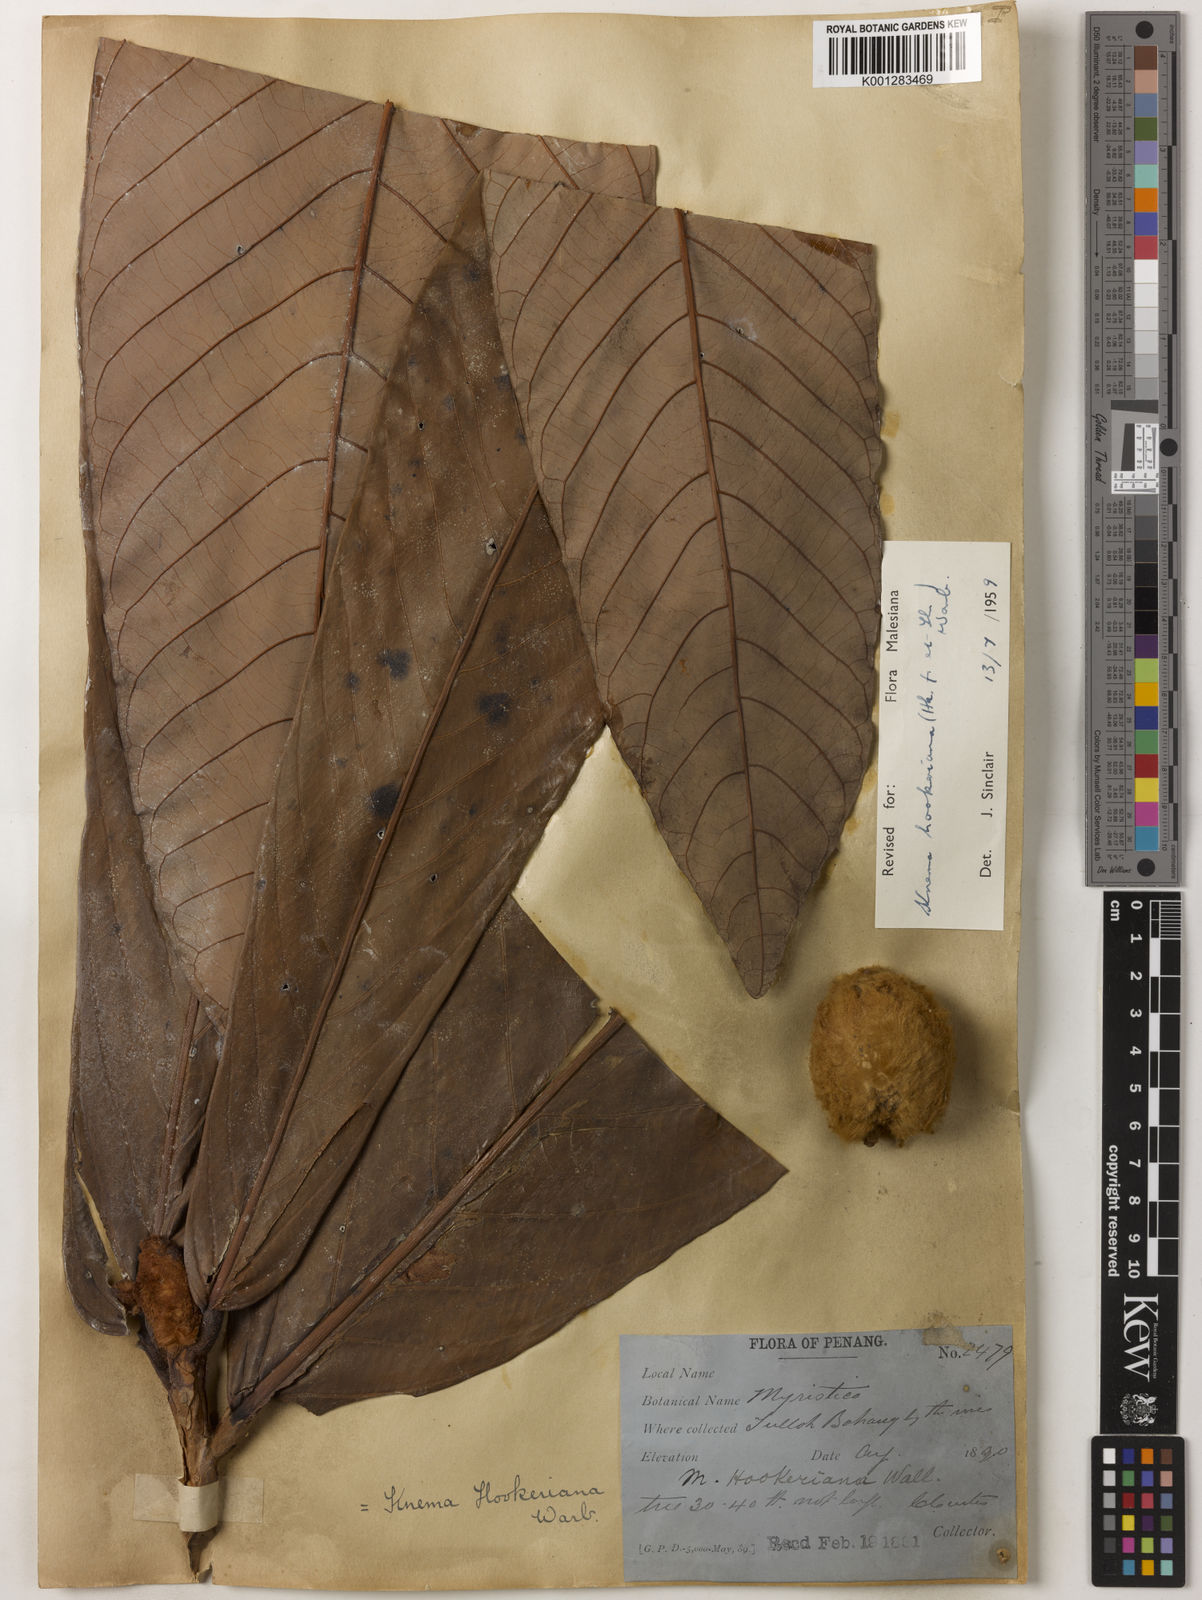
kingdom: Plantae
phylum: Tracheophyta
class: Magnoliopsida
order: Magnoliales
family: Myristicaceae
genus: Knema
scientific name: Knema hookeriana
